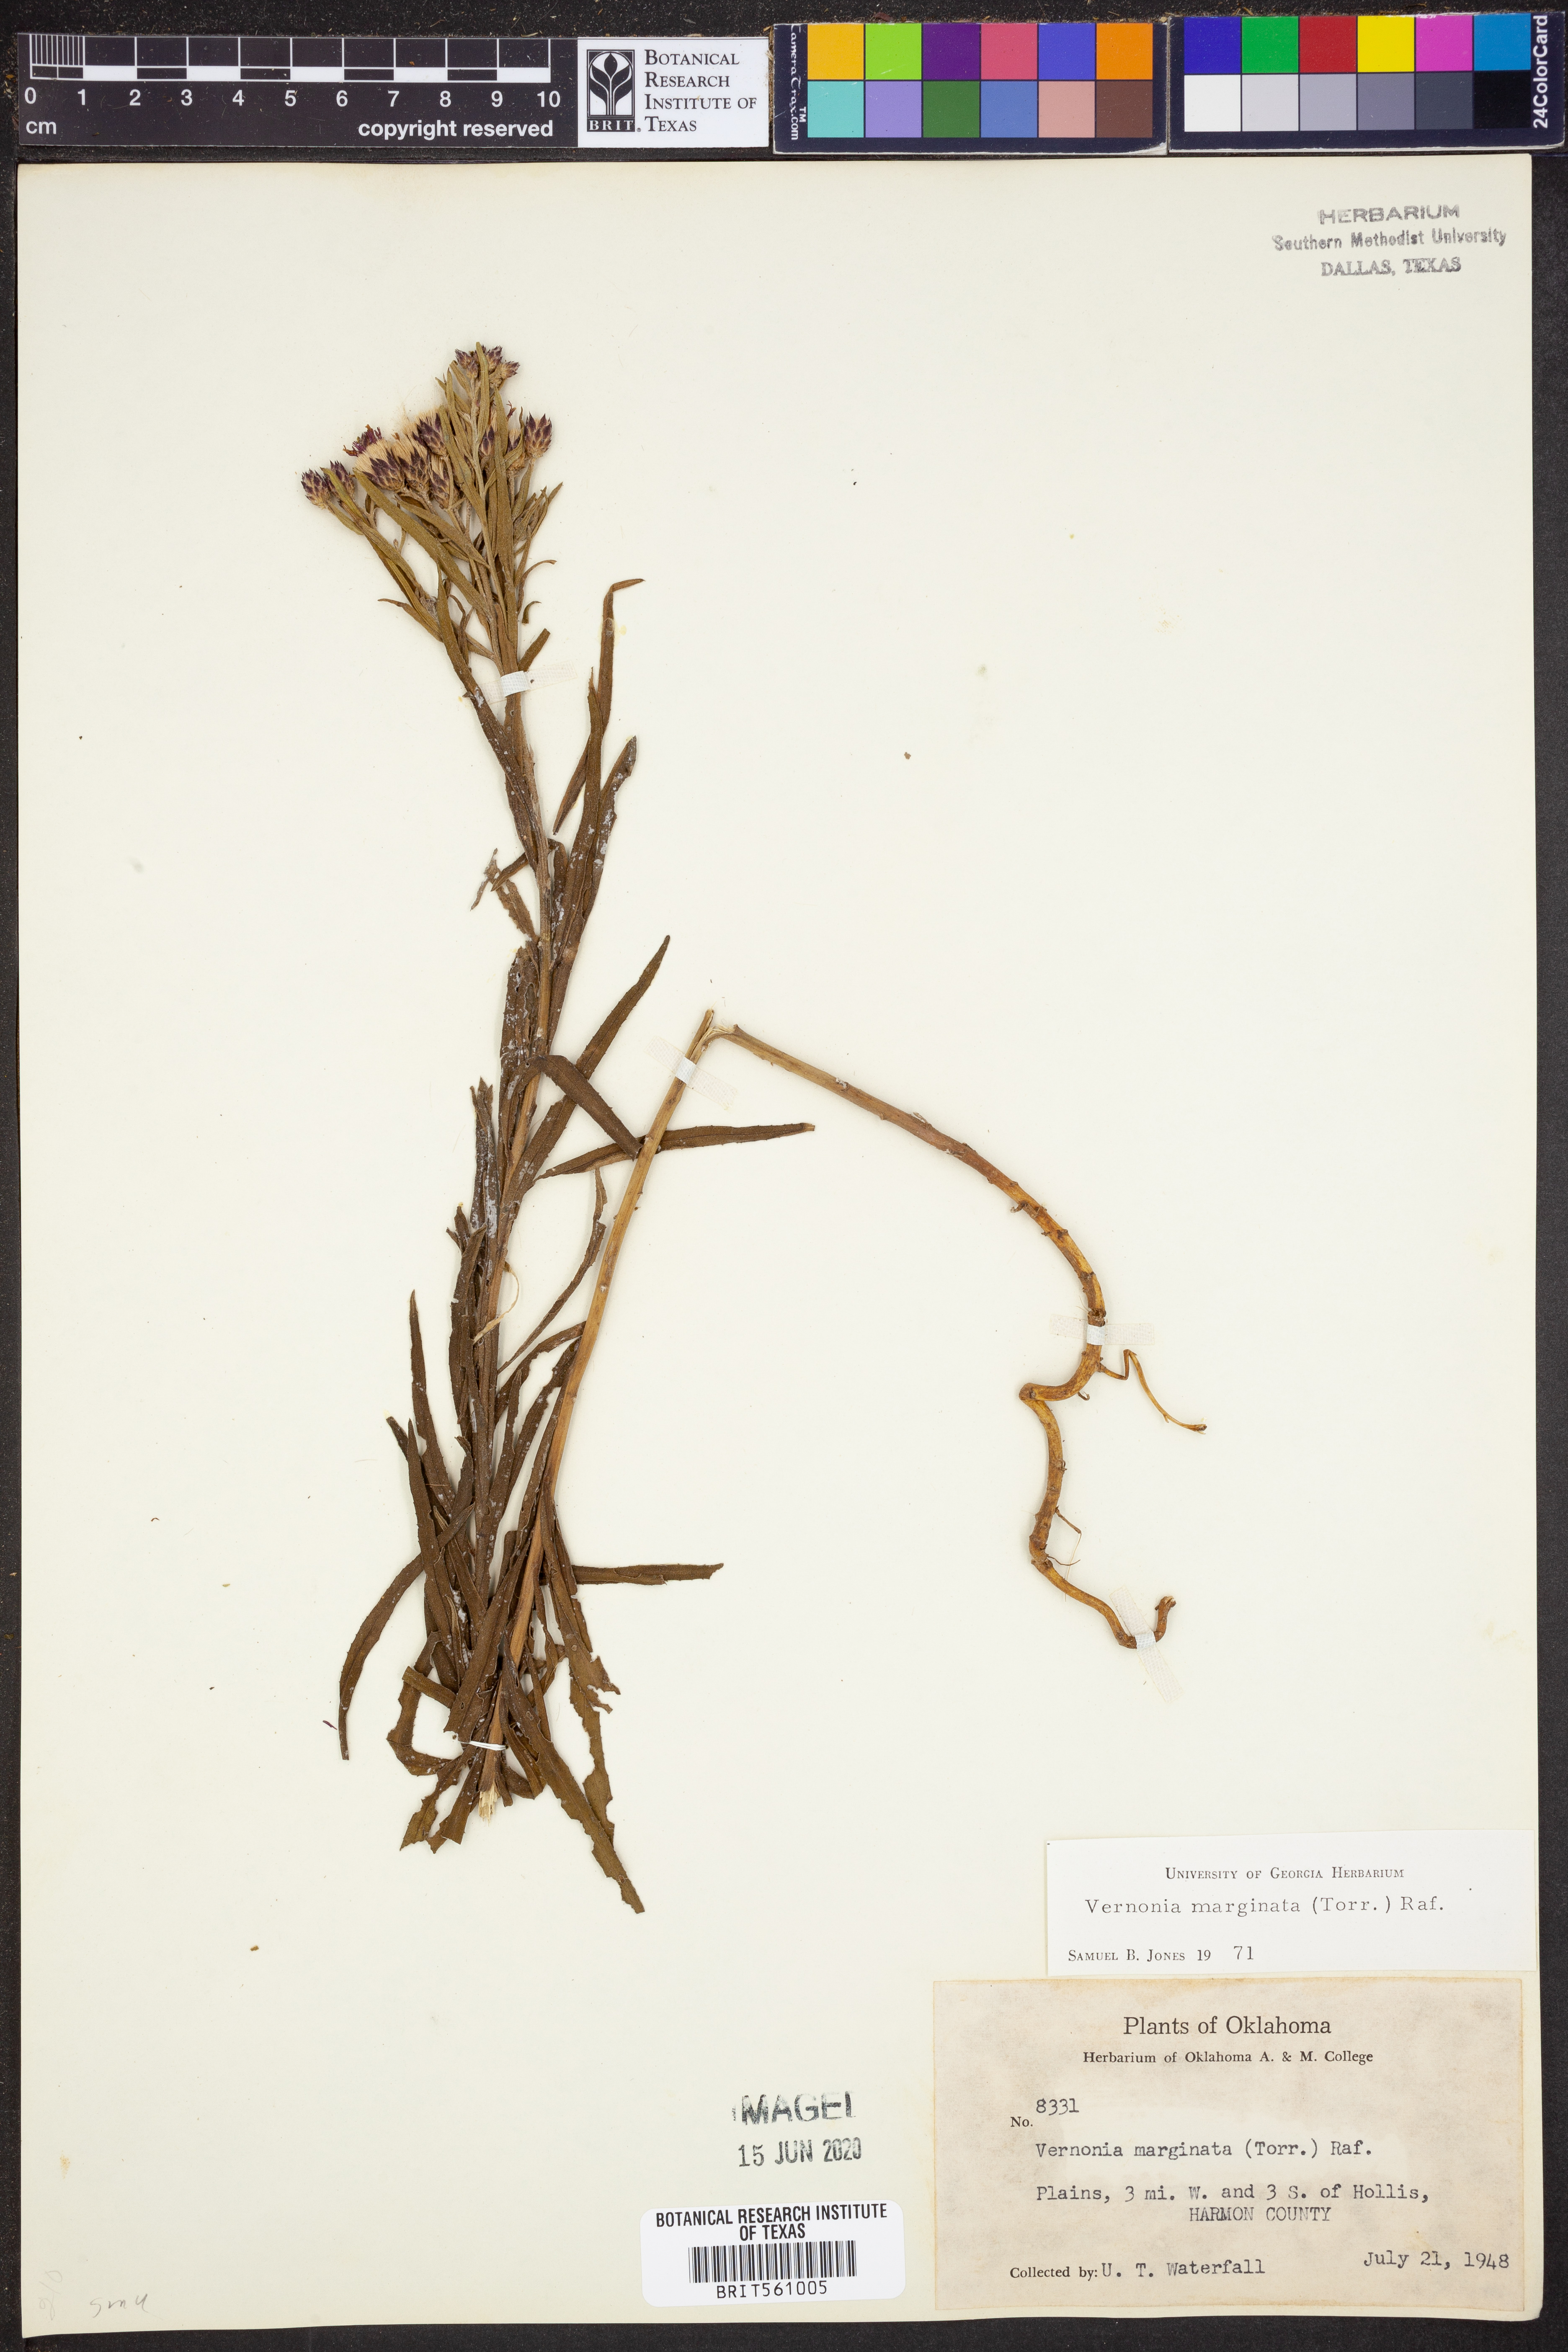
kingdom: Plantae
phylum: Tracheophyta
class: Magnoliopsida
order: Asterales
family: Asteraceae
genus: Vernonia
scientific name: Vernonia marginata
